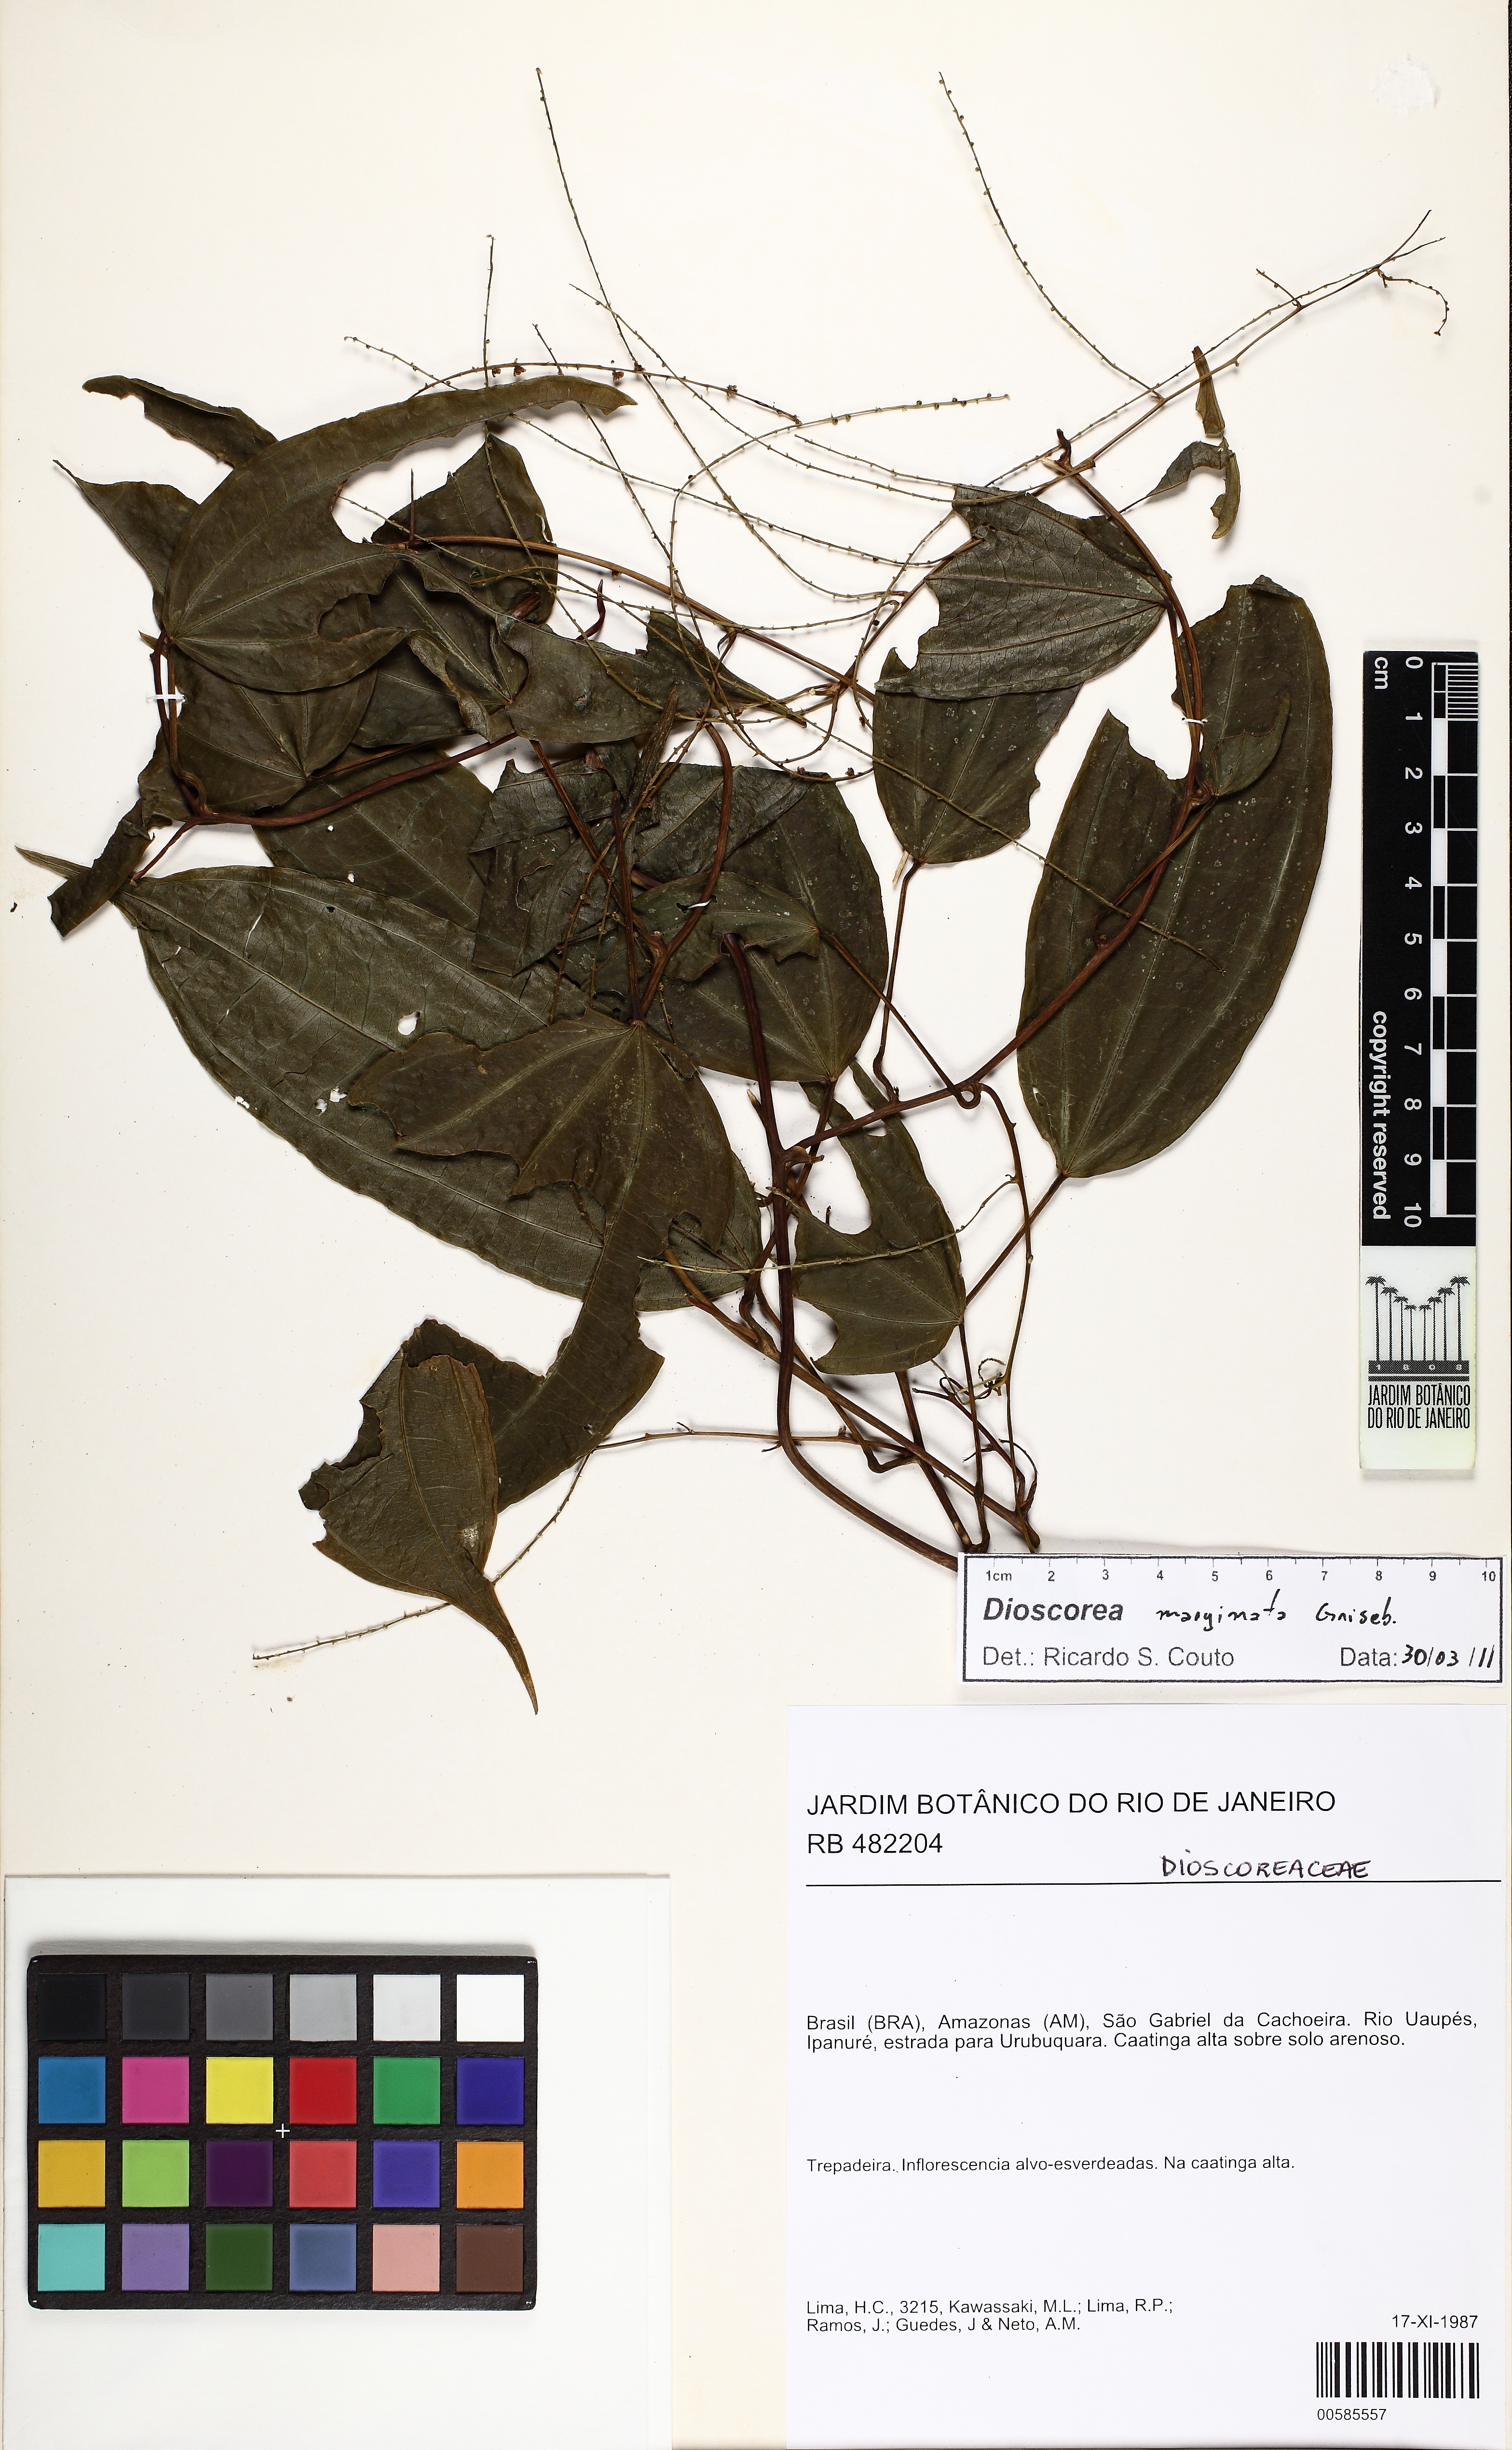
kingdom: Plantae
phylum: Tracheophyta
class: Liliopsida
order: Dioscoreales
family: Dioscoreaceae
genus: Dioscorea
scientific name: Dioscorea marginata
